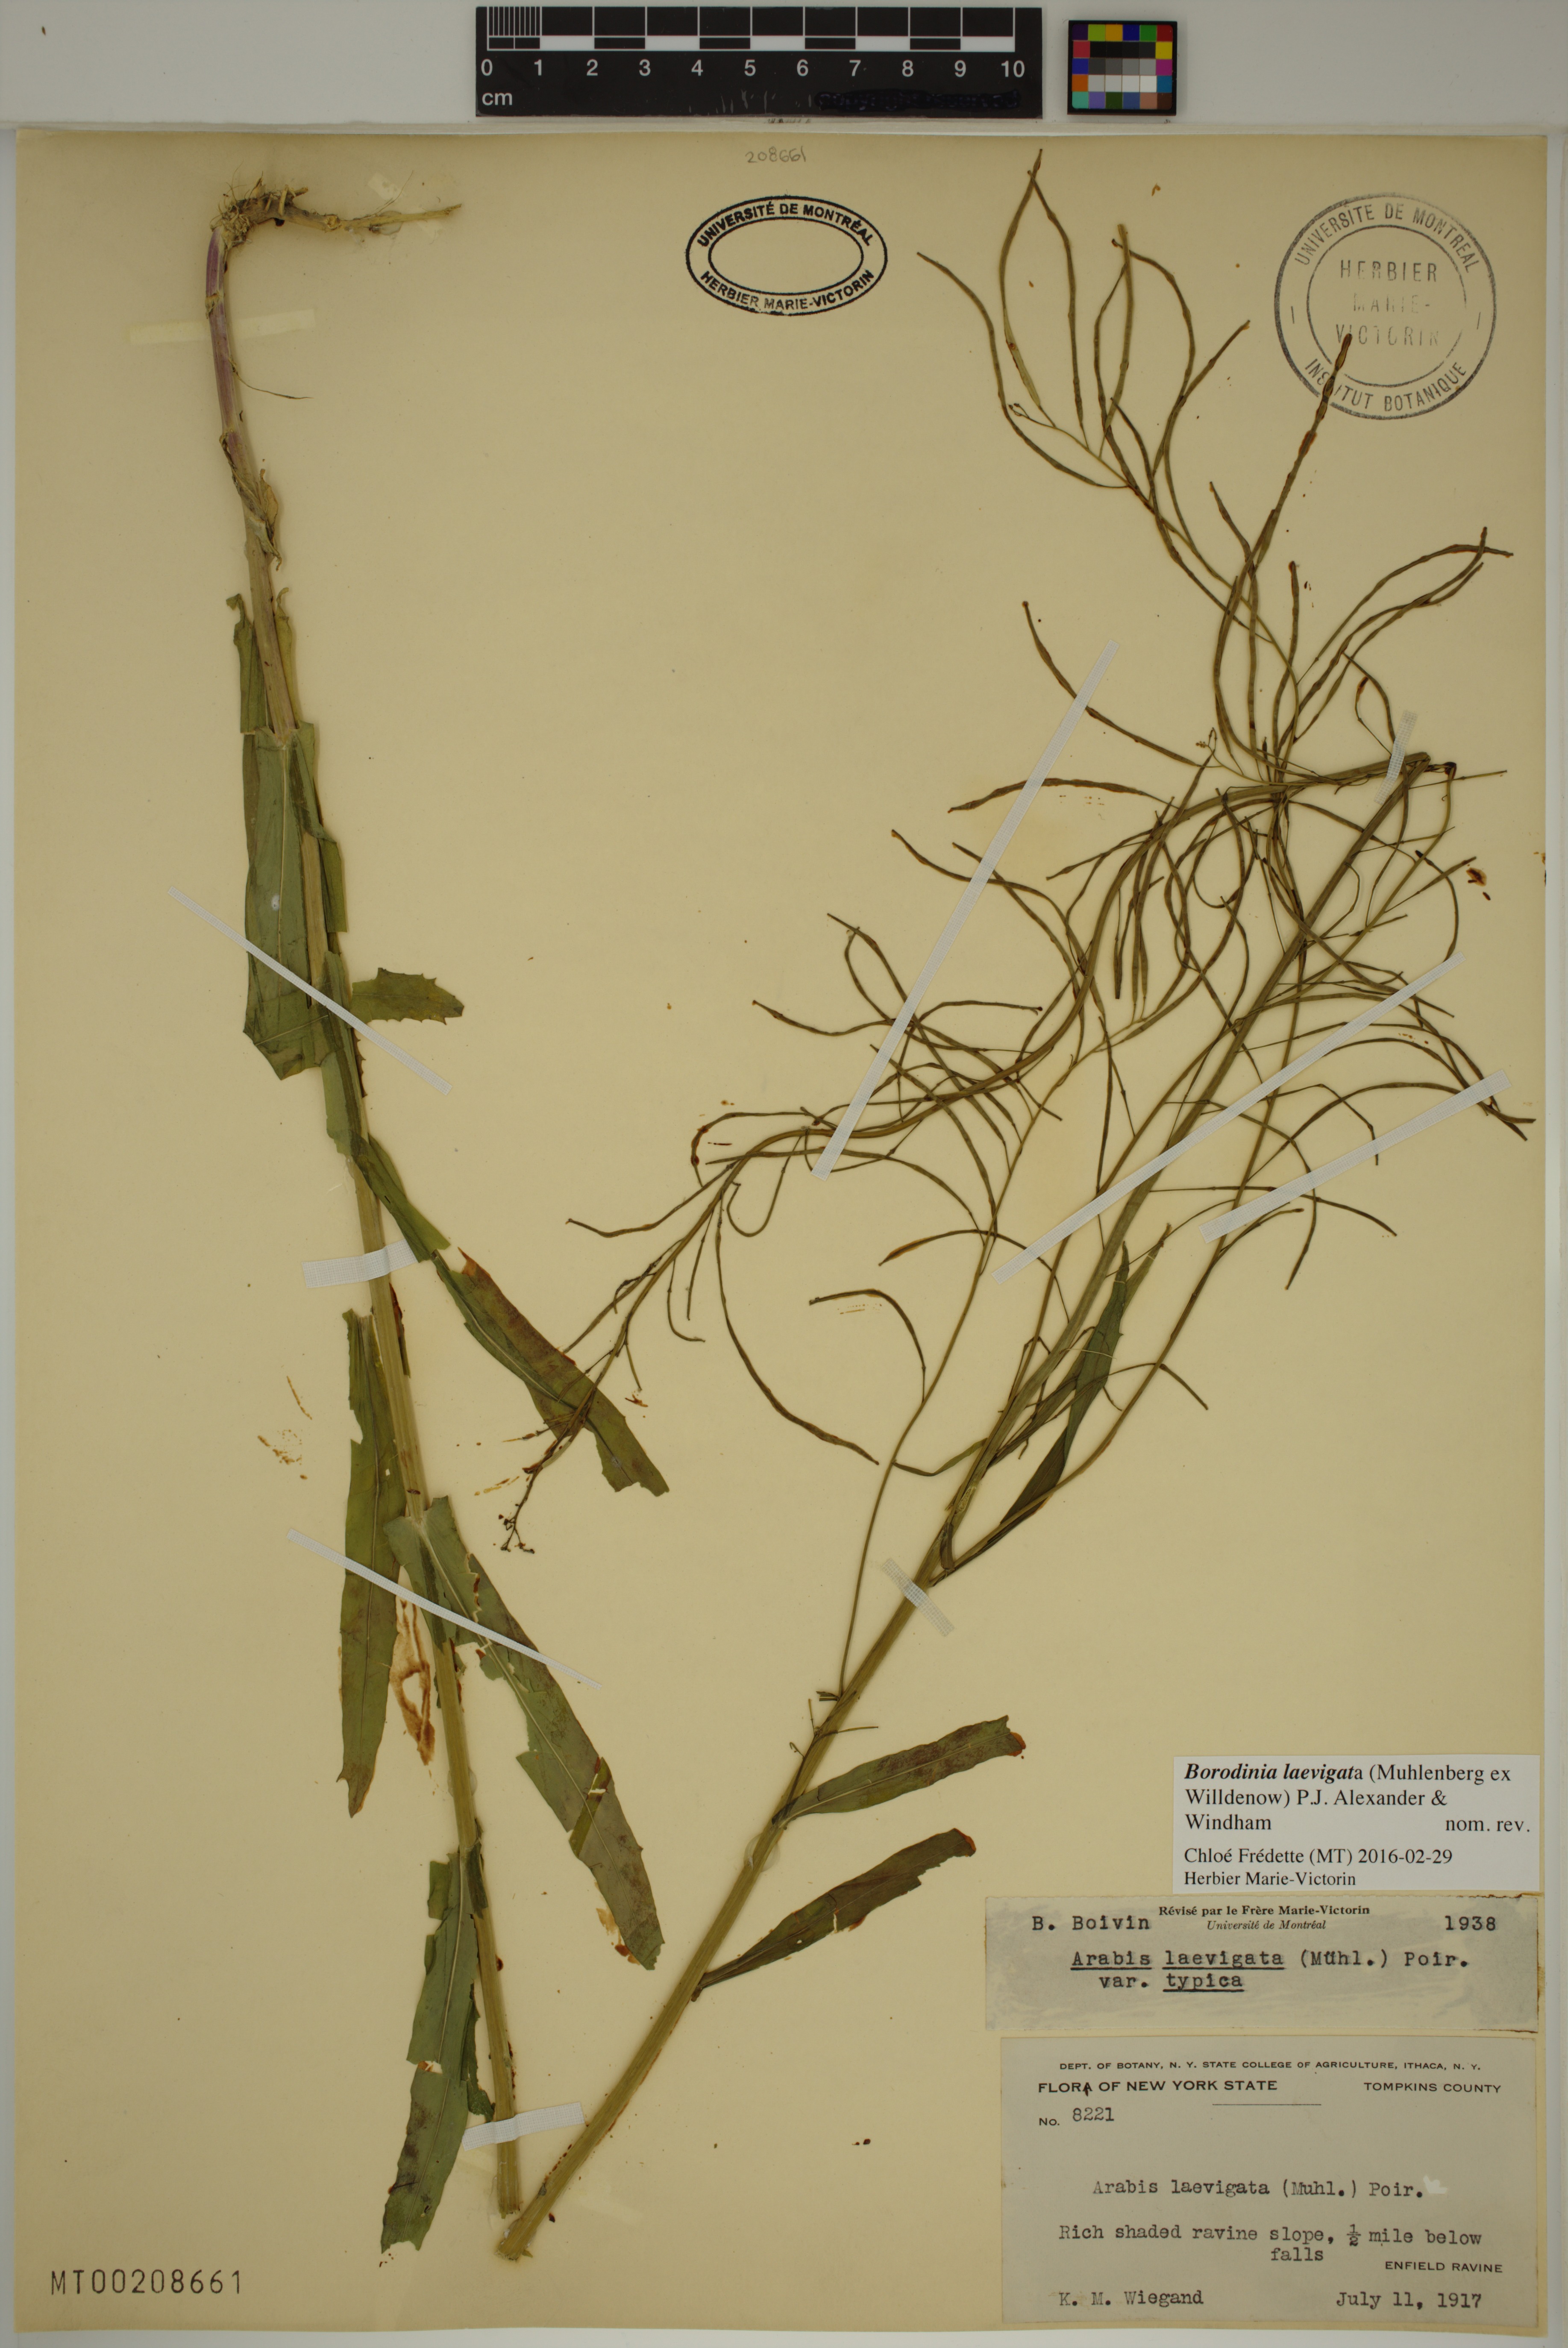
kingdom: Plantae
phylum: Tracheophyta
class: Magnoliopsida
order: Brassicales
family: Brassicaceae
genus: Borodinia
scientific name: Borodinia laevigata
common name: Smooth rockcress
